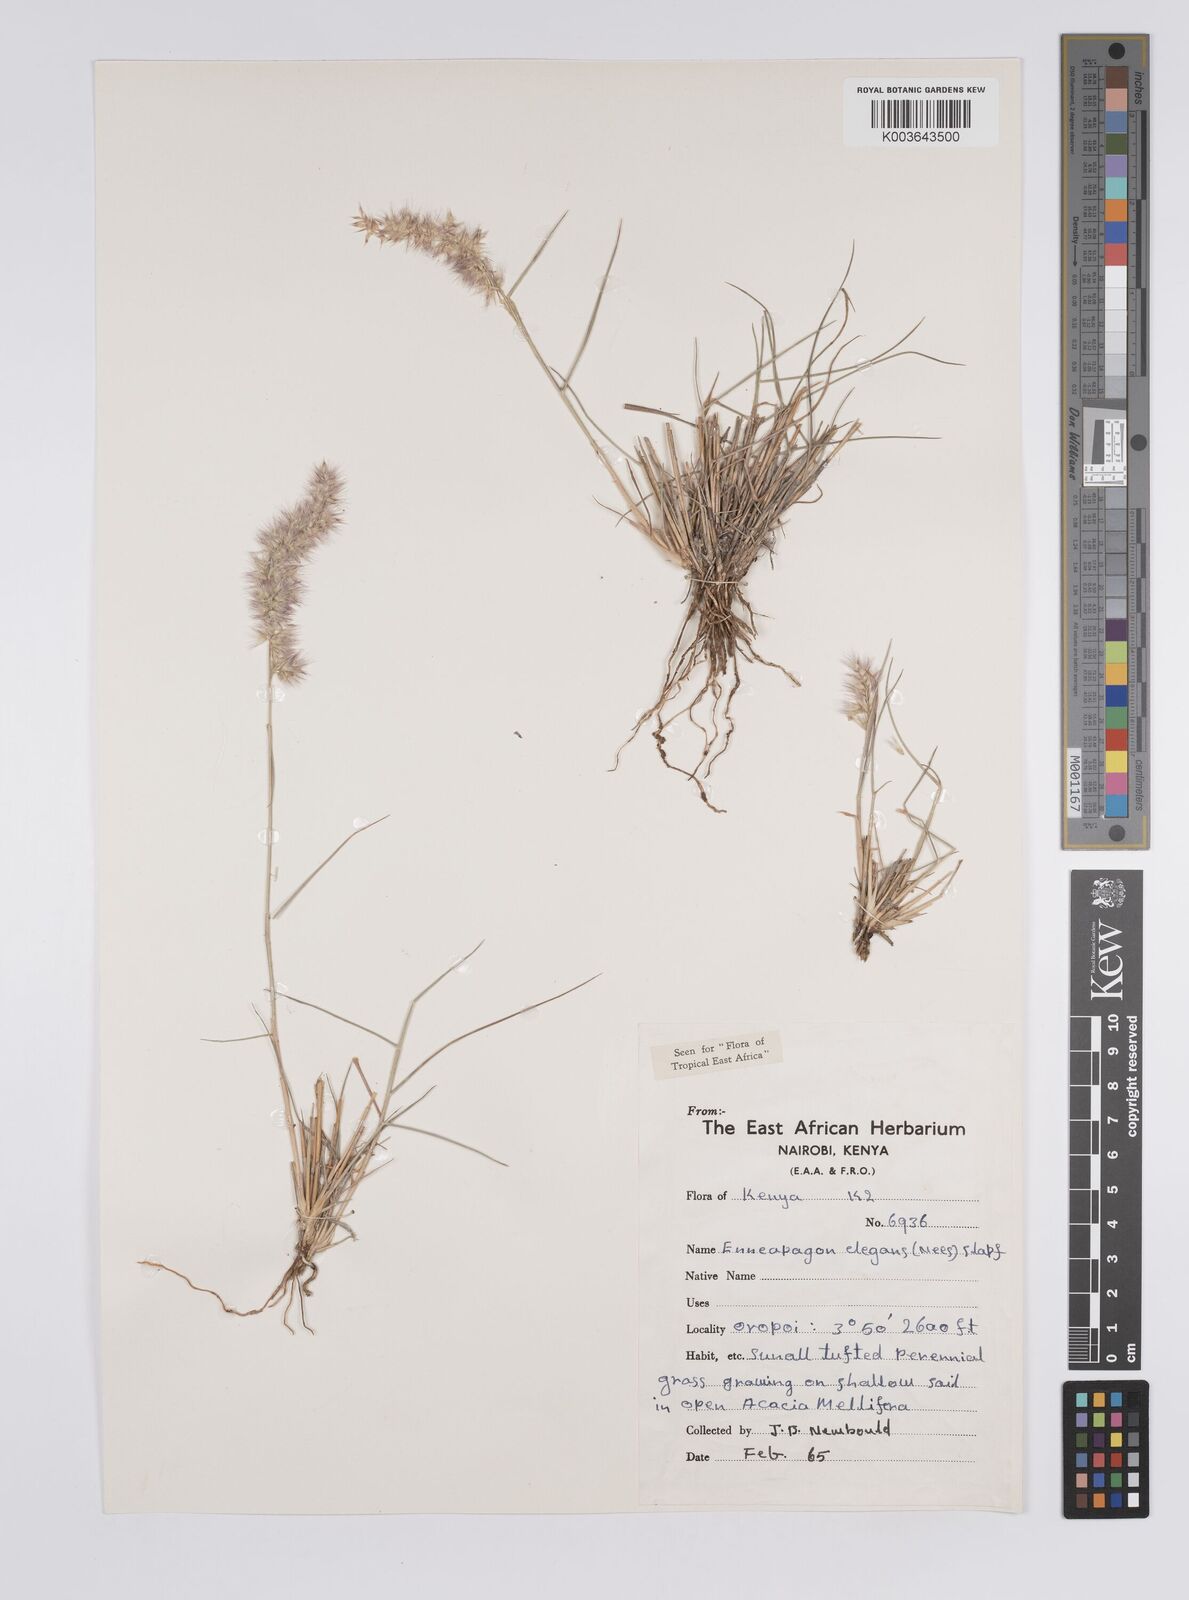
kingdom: Plantae
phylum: Tracheophyta
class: Liliopsida
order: Poales
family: Poaceae
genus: Enneapogon
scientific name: Enneapogon persicus
